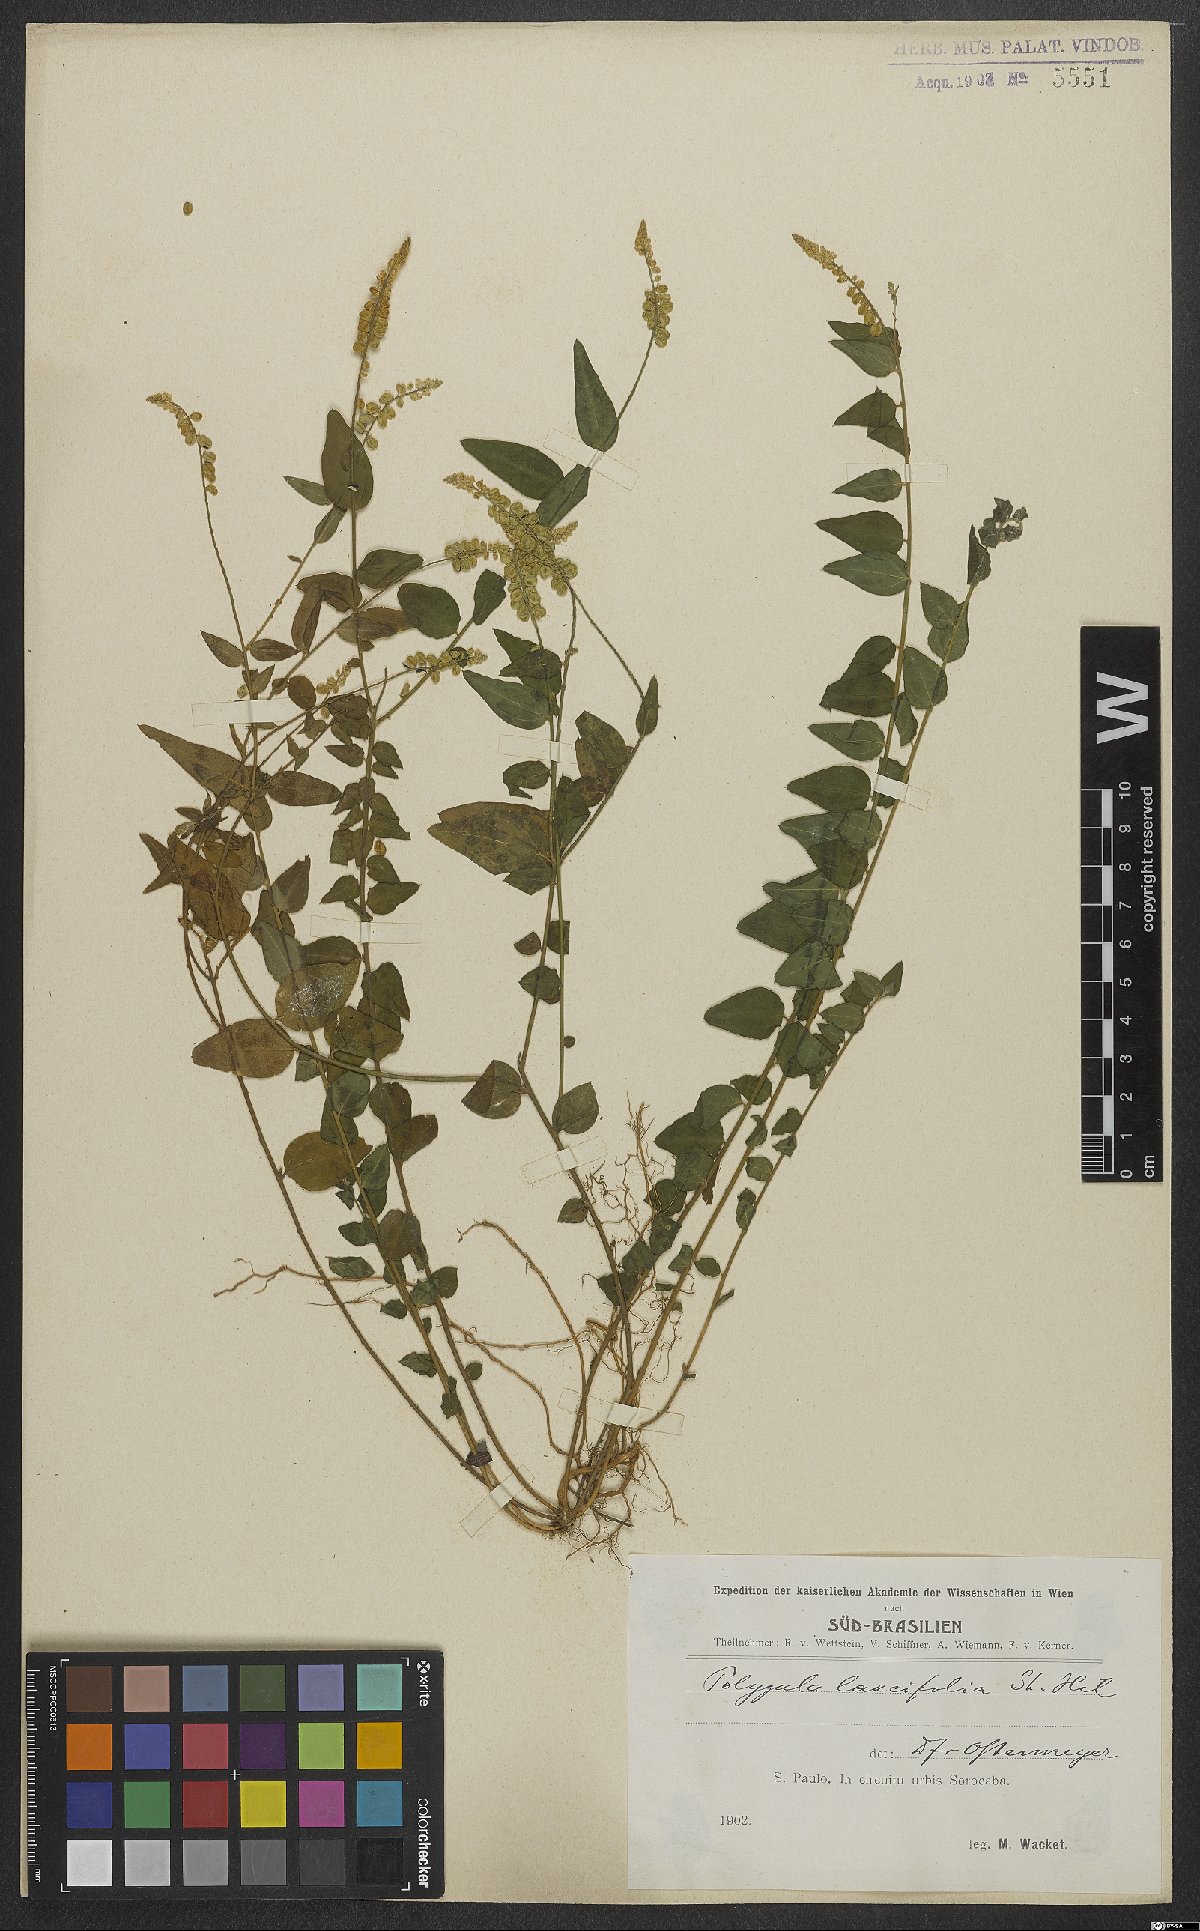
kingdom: Plantae
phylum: Tracheophyta
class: Magnoliopsida
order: Fabales
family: Polygalaceae
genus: Polygala
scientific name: Polygala lancifolia
